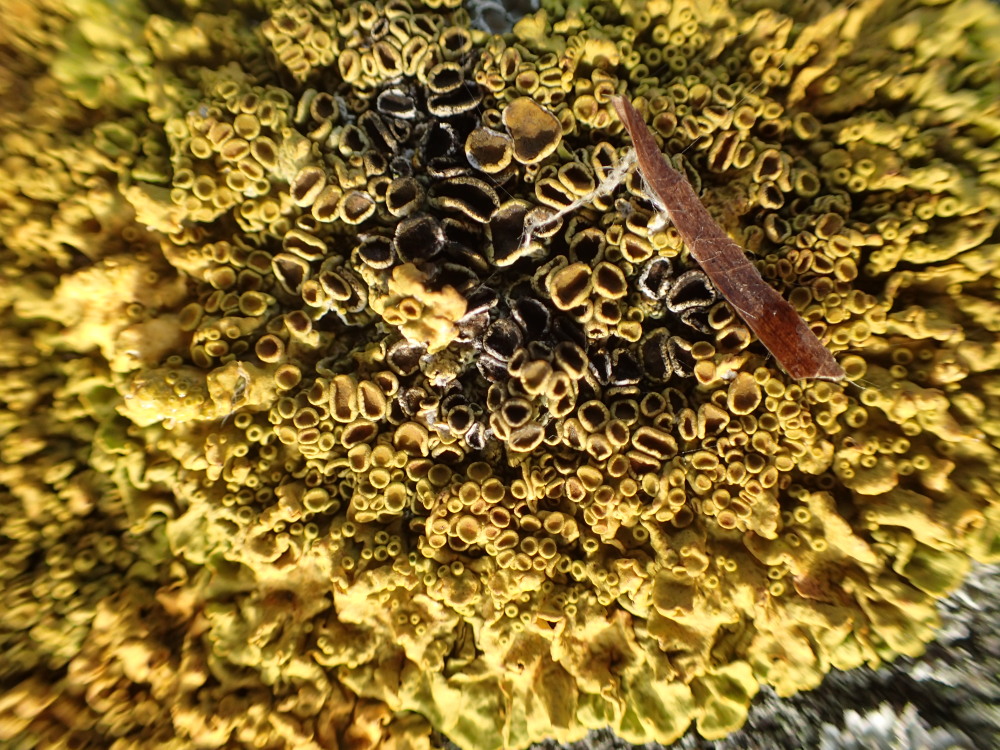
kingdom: Fungi
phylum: Ascomycota
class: Lecanoromycetes
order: Teloschistales
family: Teloschistaceae
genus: Xanthoria
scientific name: Xanthoria parietina
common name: almindelig væggelav
